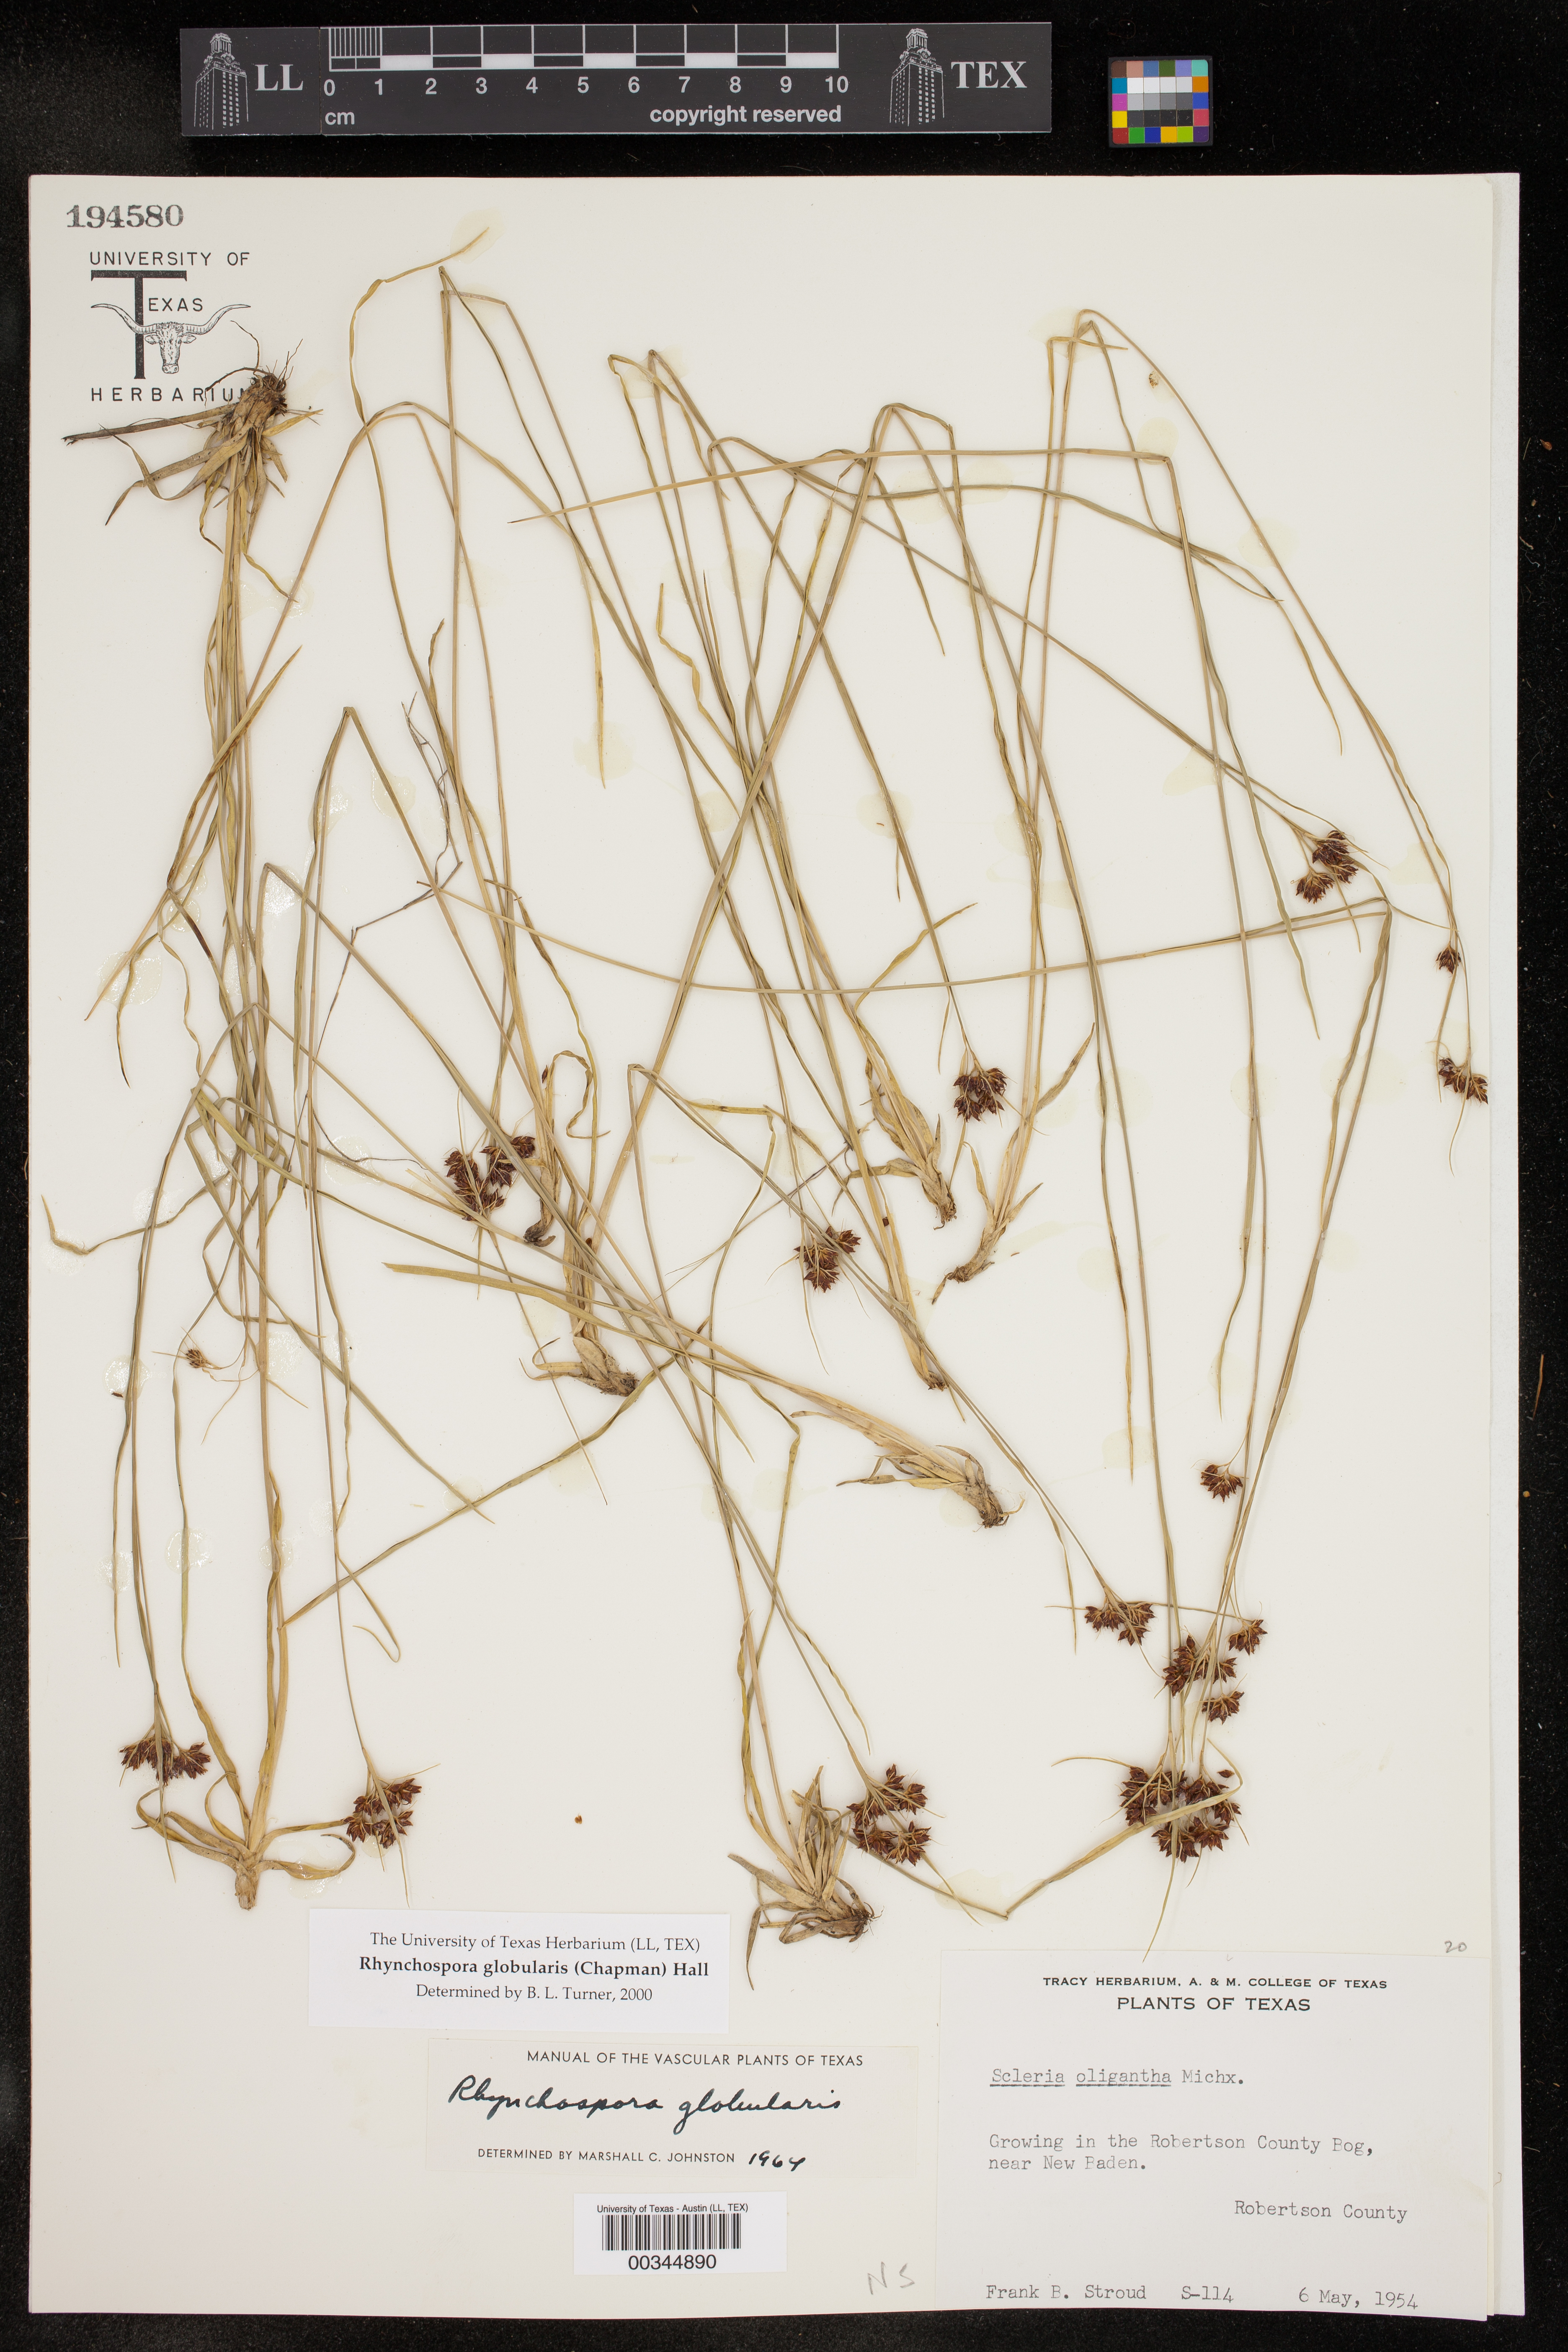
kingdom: Plantae
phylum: Tracheophyta
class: Liliopsida
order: Poales
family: Cyperaceae
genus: Rhynchospora
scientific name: Rhynchospora globularis
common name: Globe beaksedge
